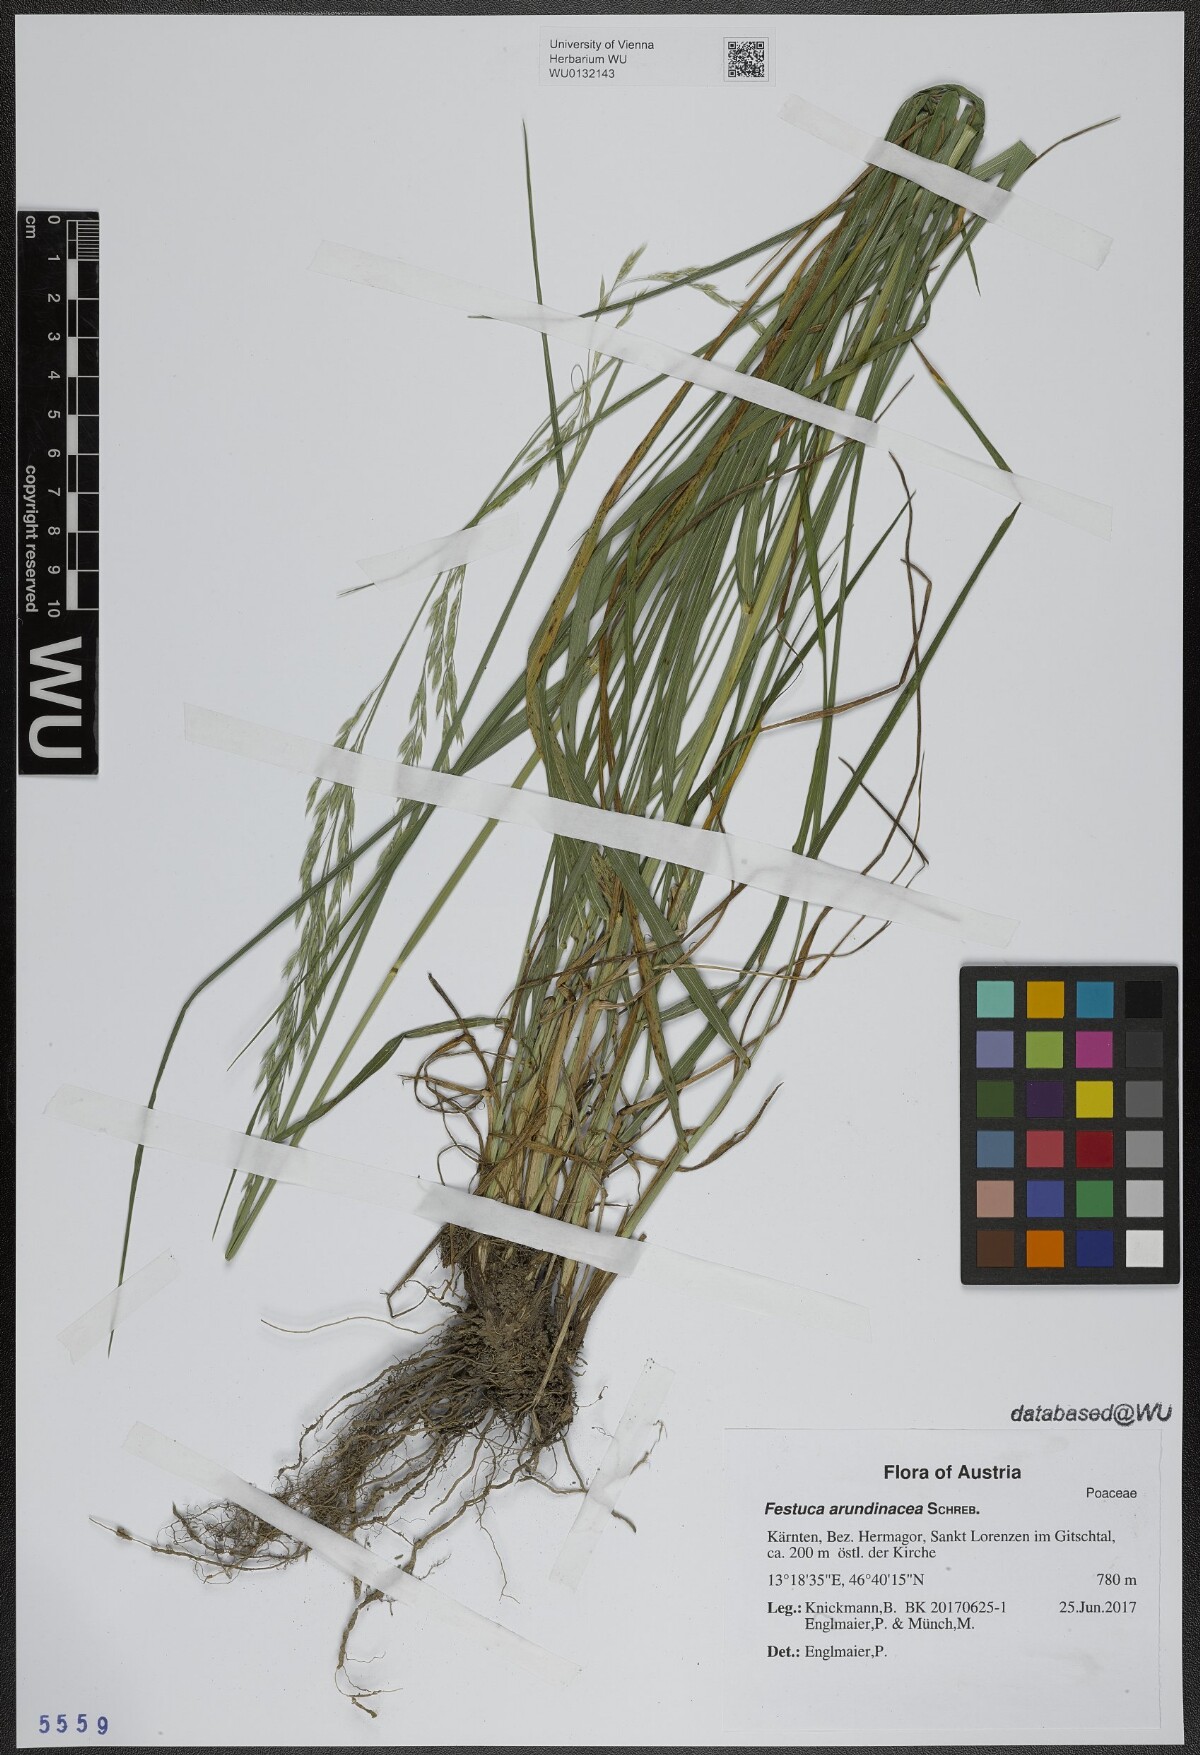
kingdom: Plantae
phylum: Tracheophyta
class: Liliopsida
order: Poales
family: Poaceae
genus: Lolium
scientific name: Lolium arundinaceum
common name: Reed fescue
